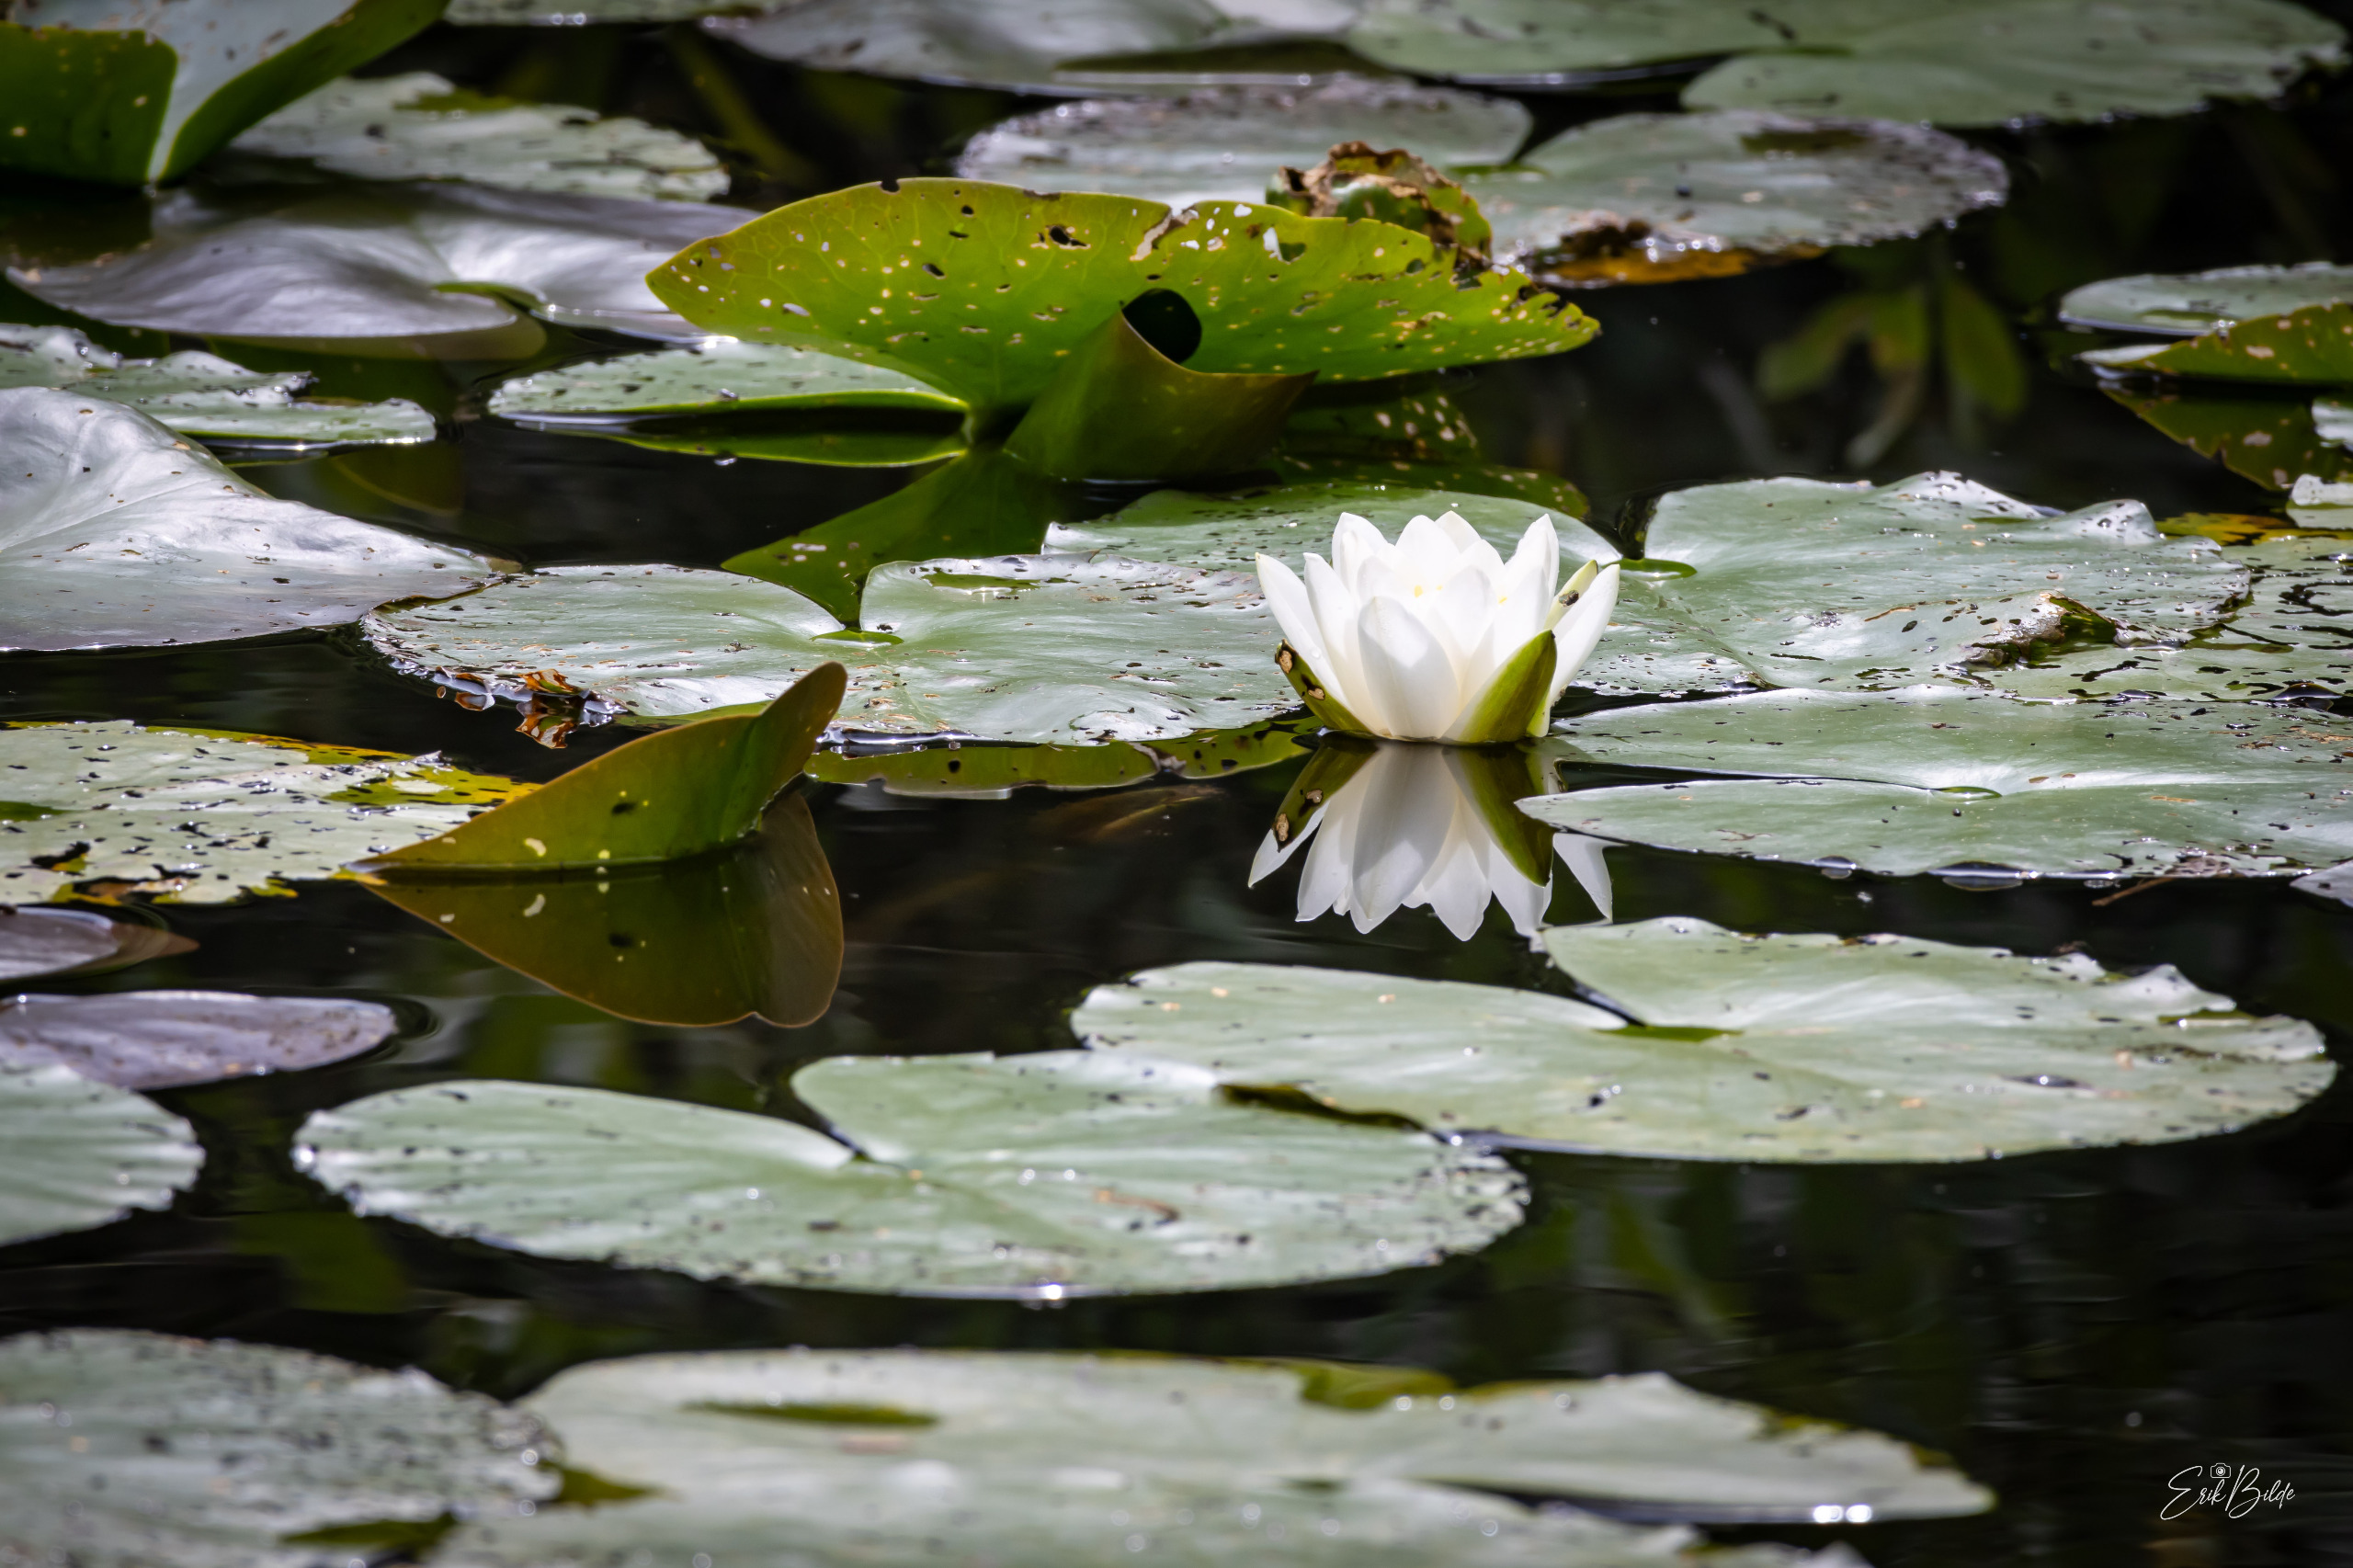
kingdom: Plantae
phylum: Tracheophyta
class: Magnoliopsida
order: Nymphaeales
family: Nymphaeaceae
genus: Nymphaea
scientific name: Nymphaea alba
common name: Hvid åkande
